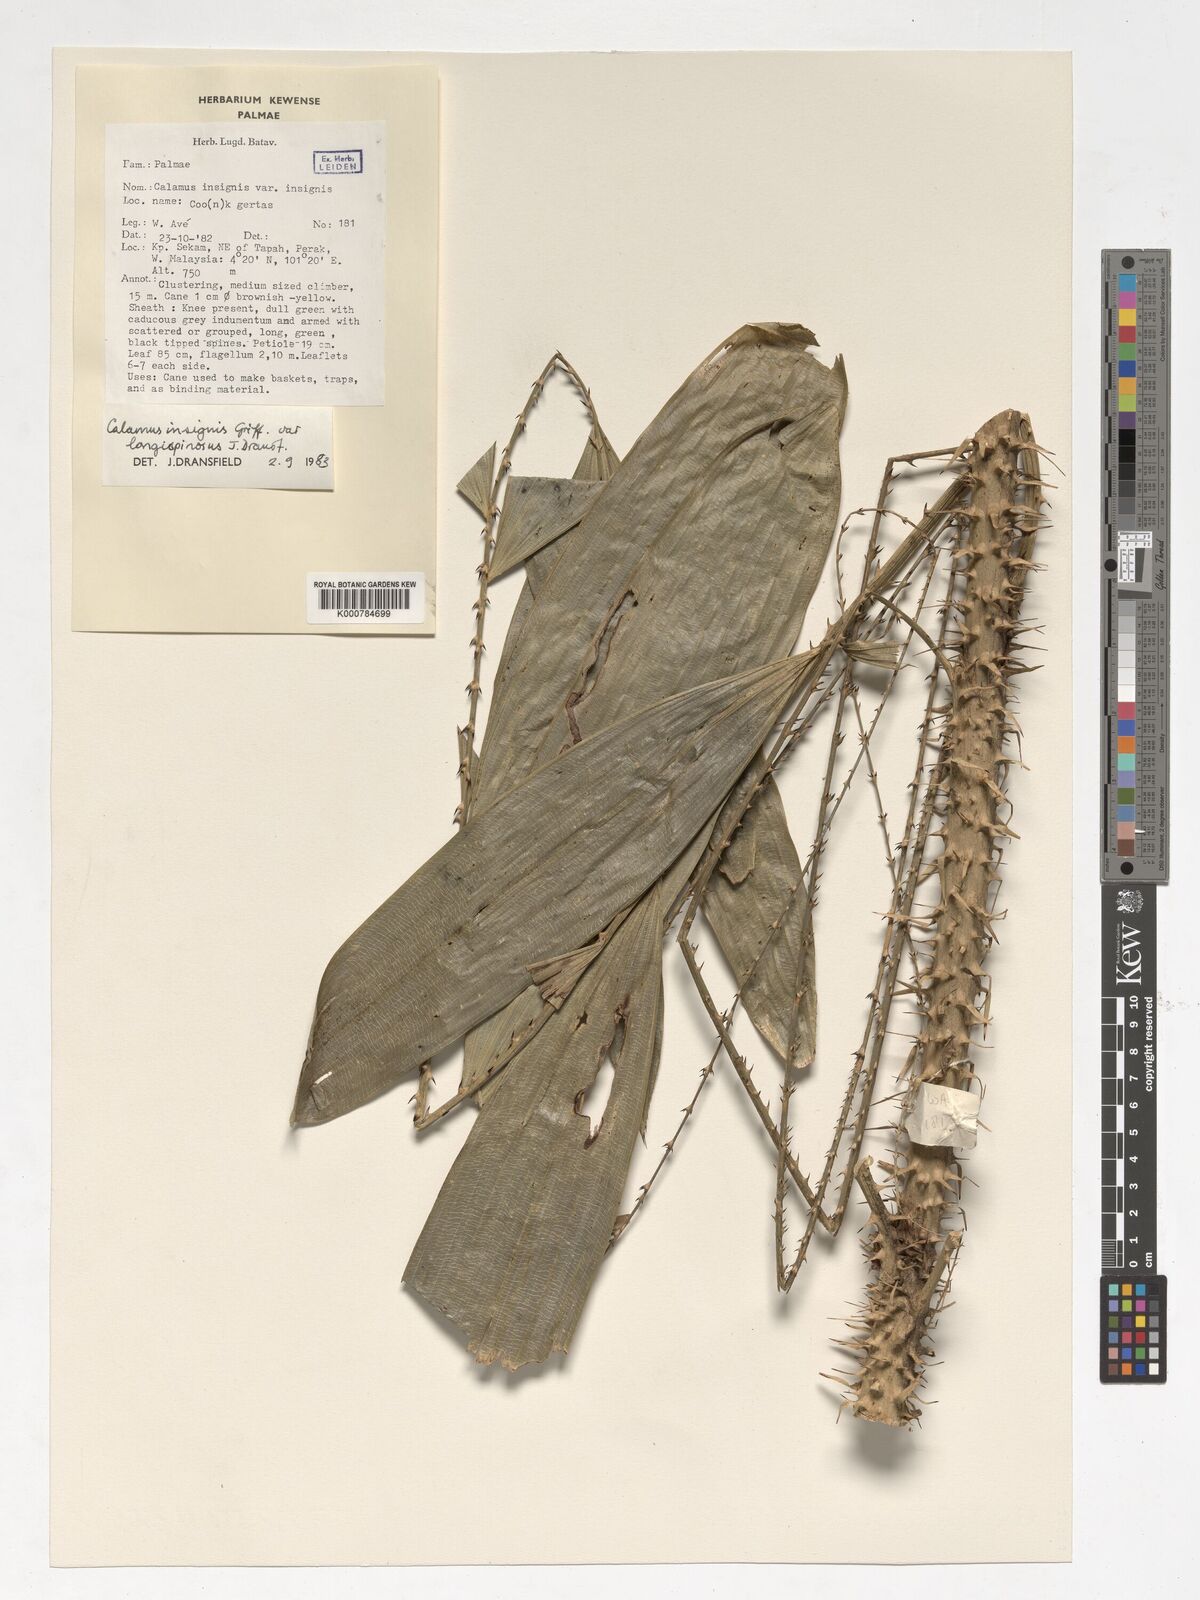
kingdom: Plantae
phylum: Tracheophyta
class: Liliopsida
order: Arecales
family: Arecaceae
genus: Calamus
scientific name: Calamus longiusculus
